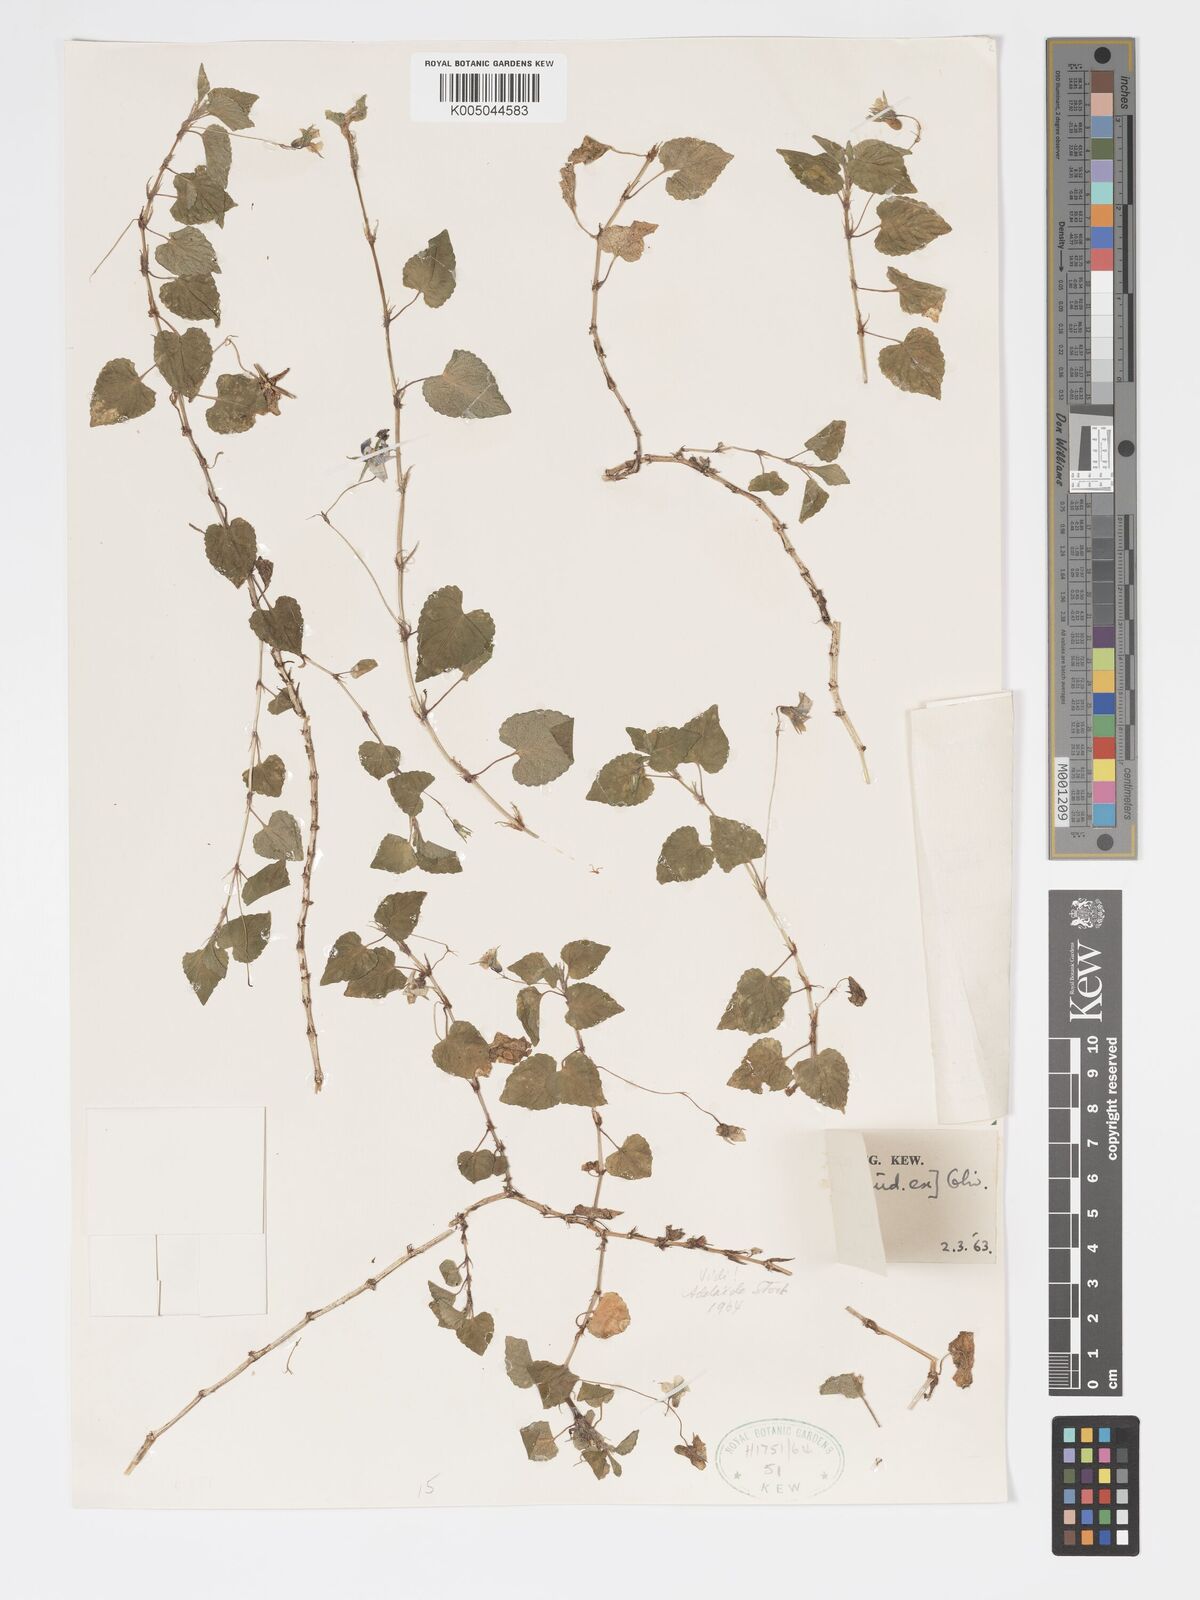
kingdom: Plantae
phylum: Tracheophyta
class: Magnoliopsida
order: Malpighiales
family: Violaceae
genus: Viola
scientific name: Viola abyssinica
